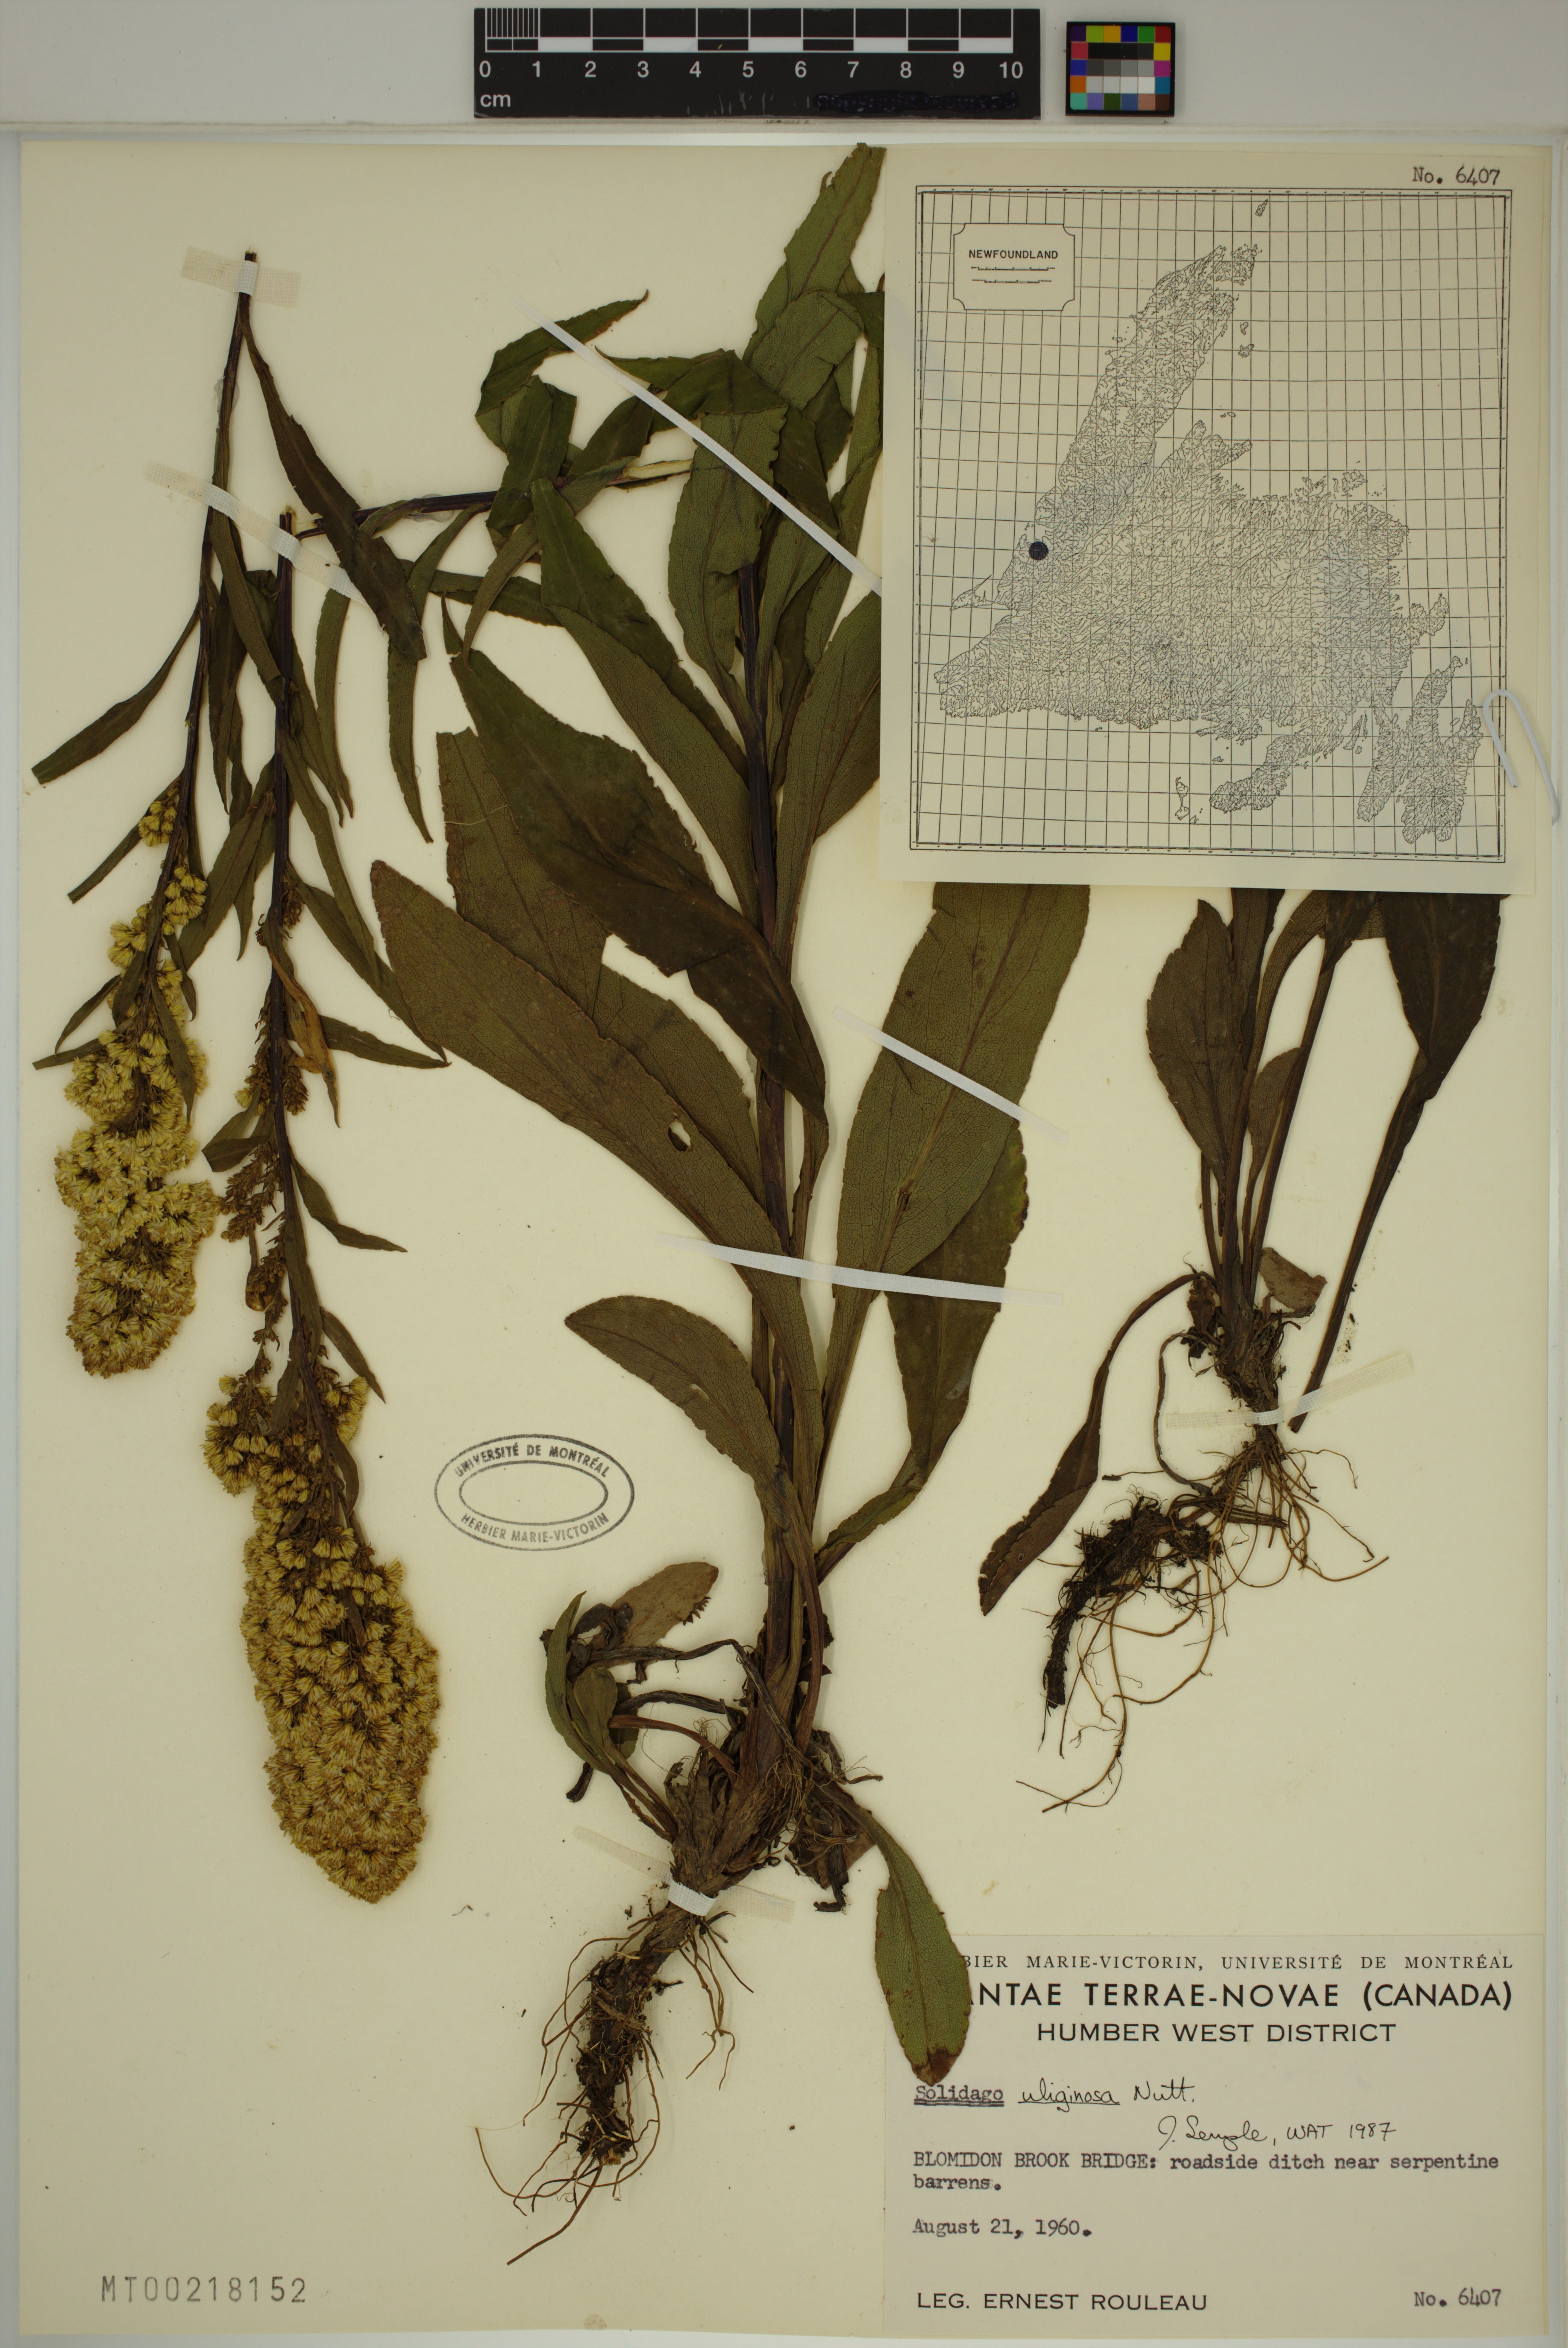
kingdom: Plantae
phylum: Tracheophyta
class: Magnoliopsida
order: Asterales
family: Asteraceae
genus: Solidago
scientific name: Solidago uliginosa
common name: Bog goldenrod
